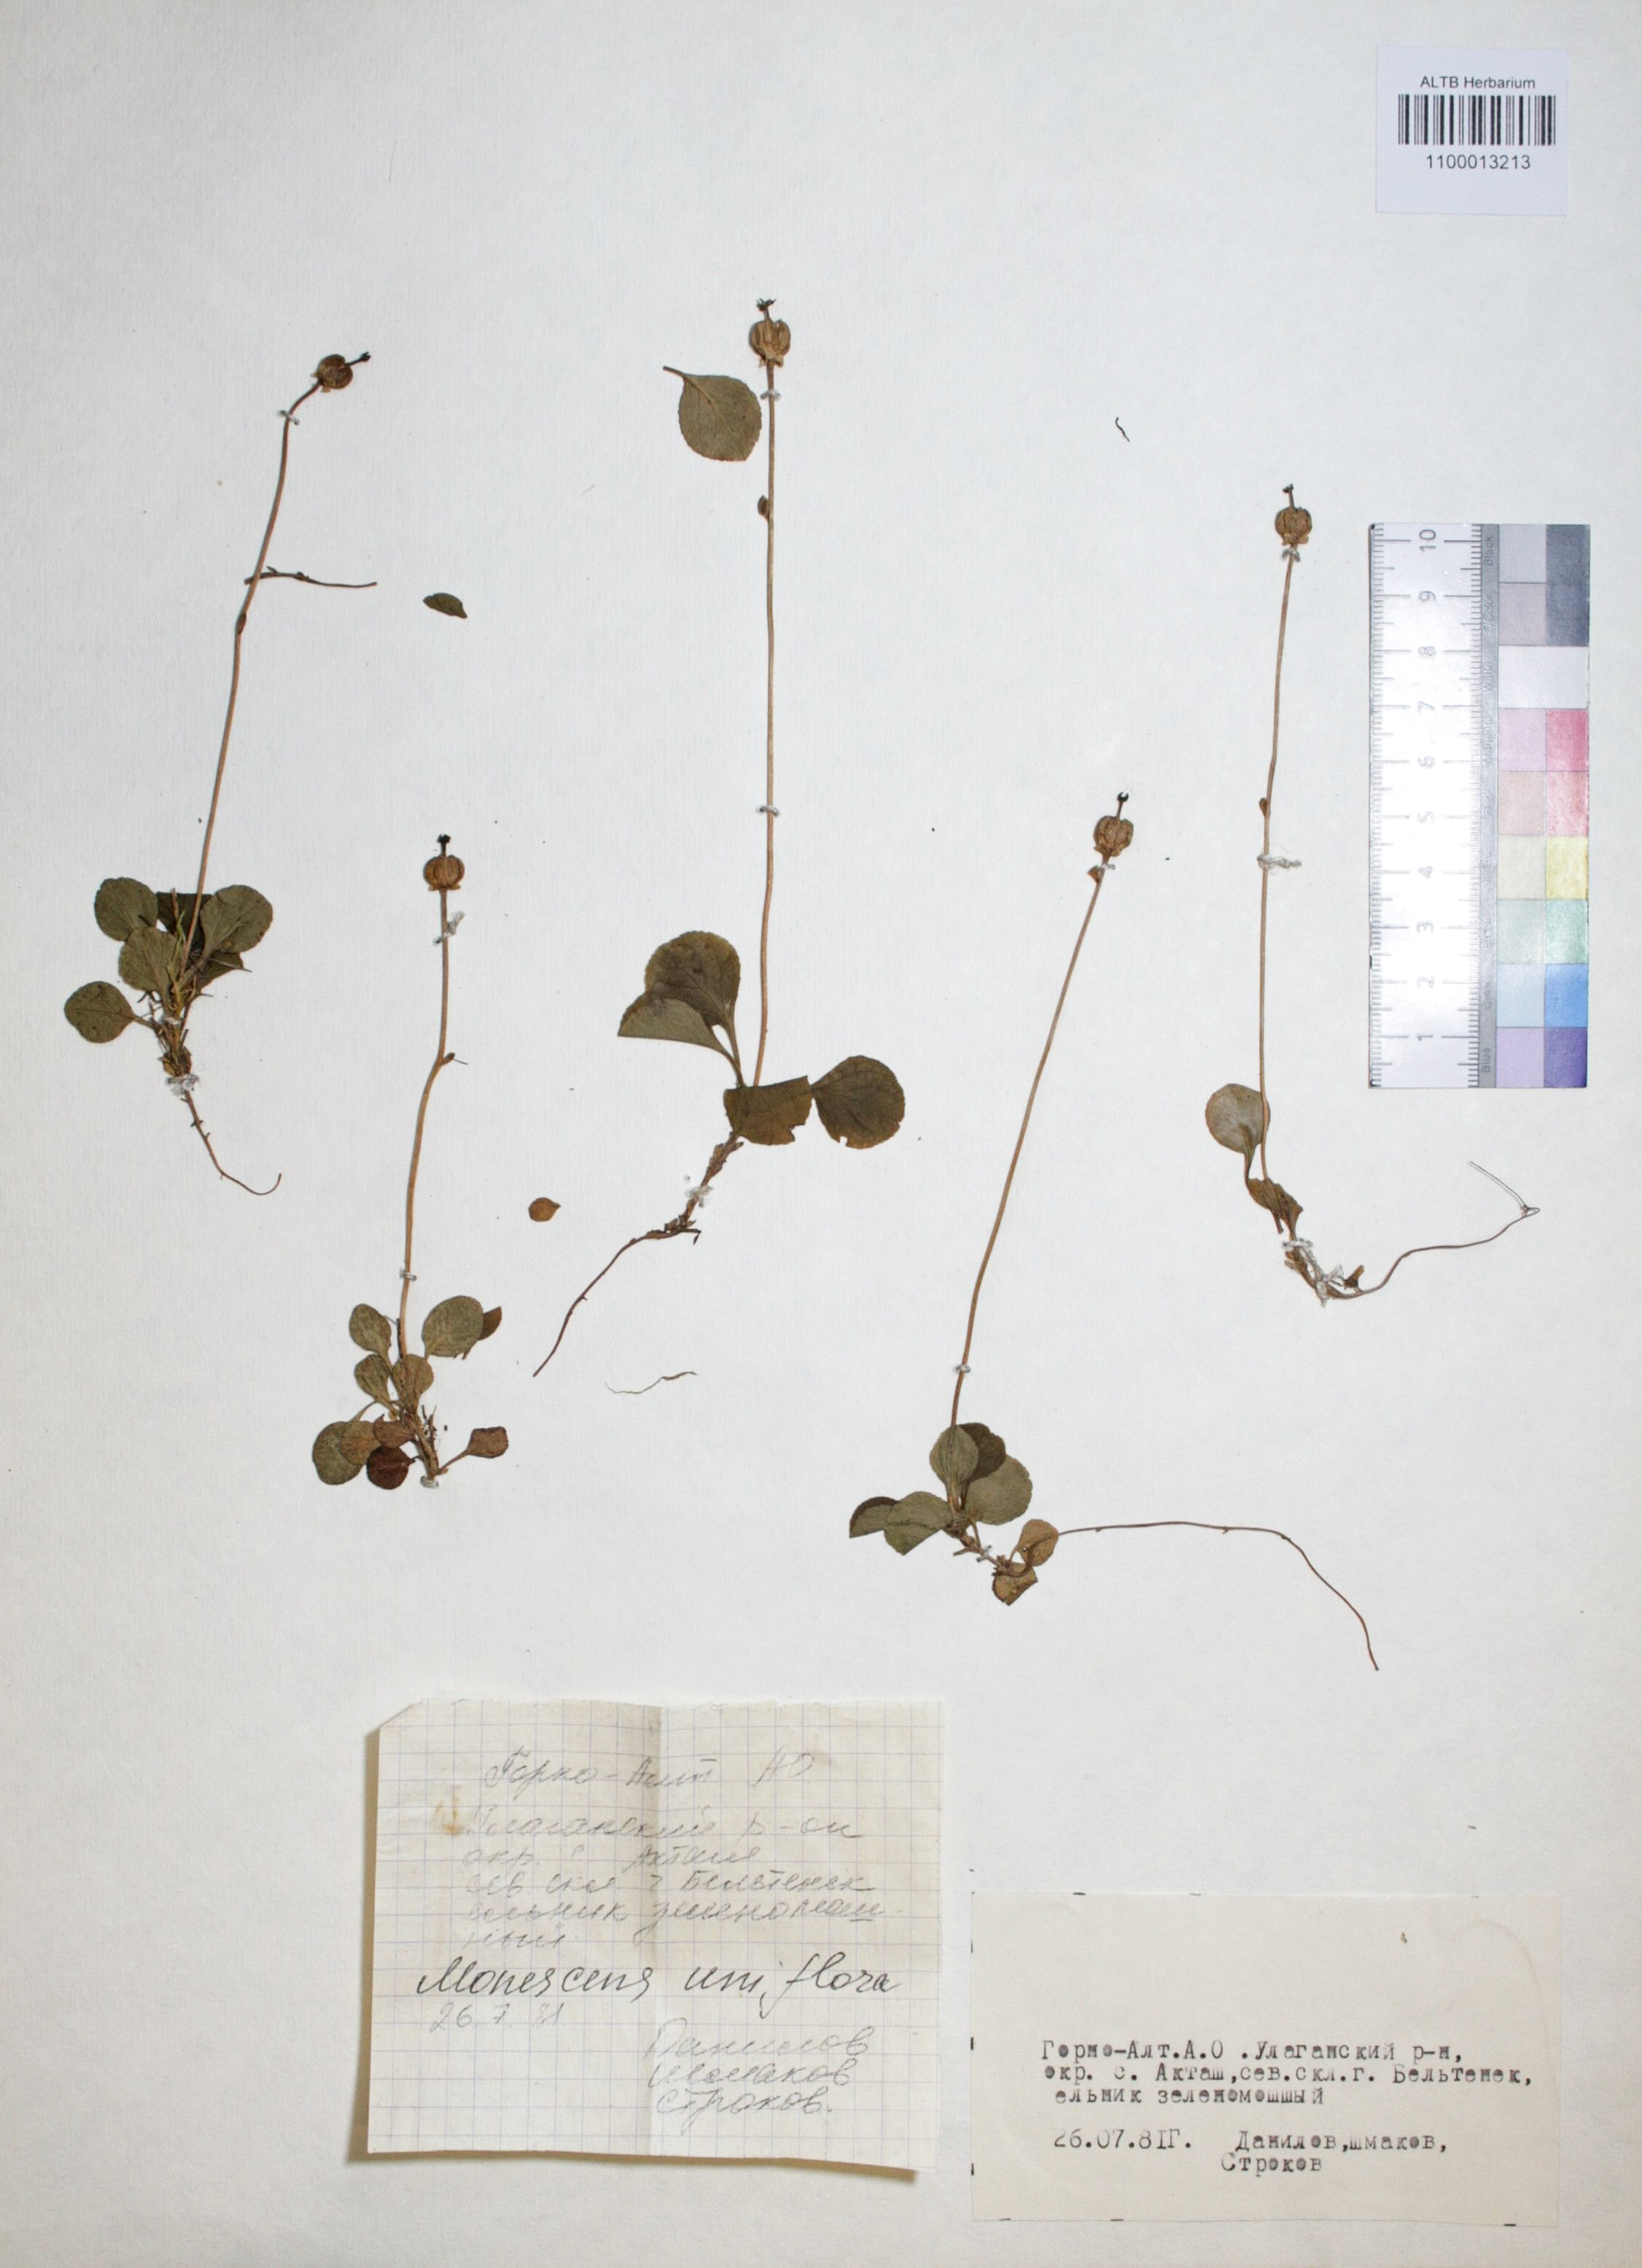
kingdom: Plantae
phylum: Tracheophyta
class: Magnoliopsida
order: Ericales
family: Ericaceae
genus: Moneses
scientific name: Moneses uniflora
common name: One-flowered wintergreen
